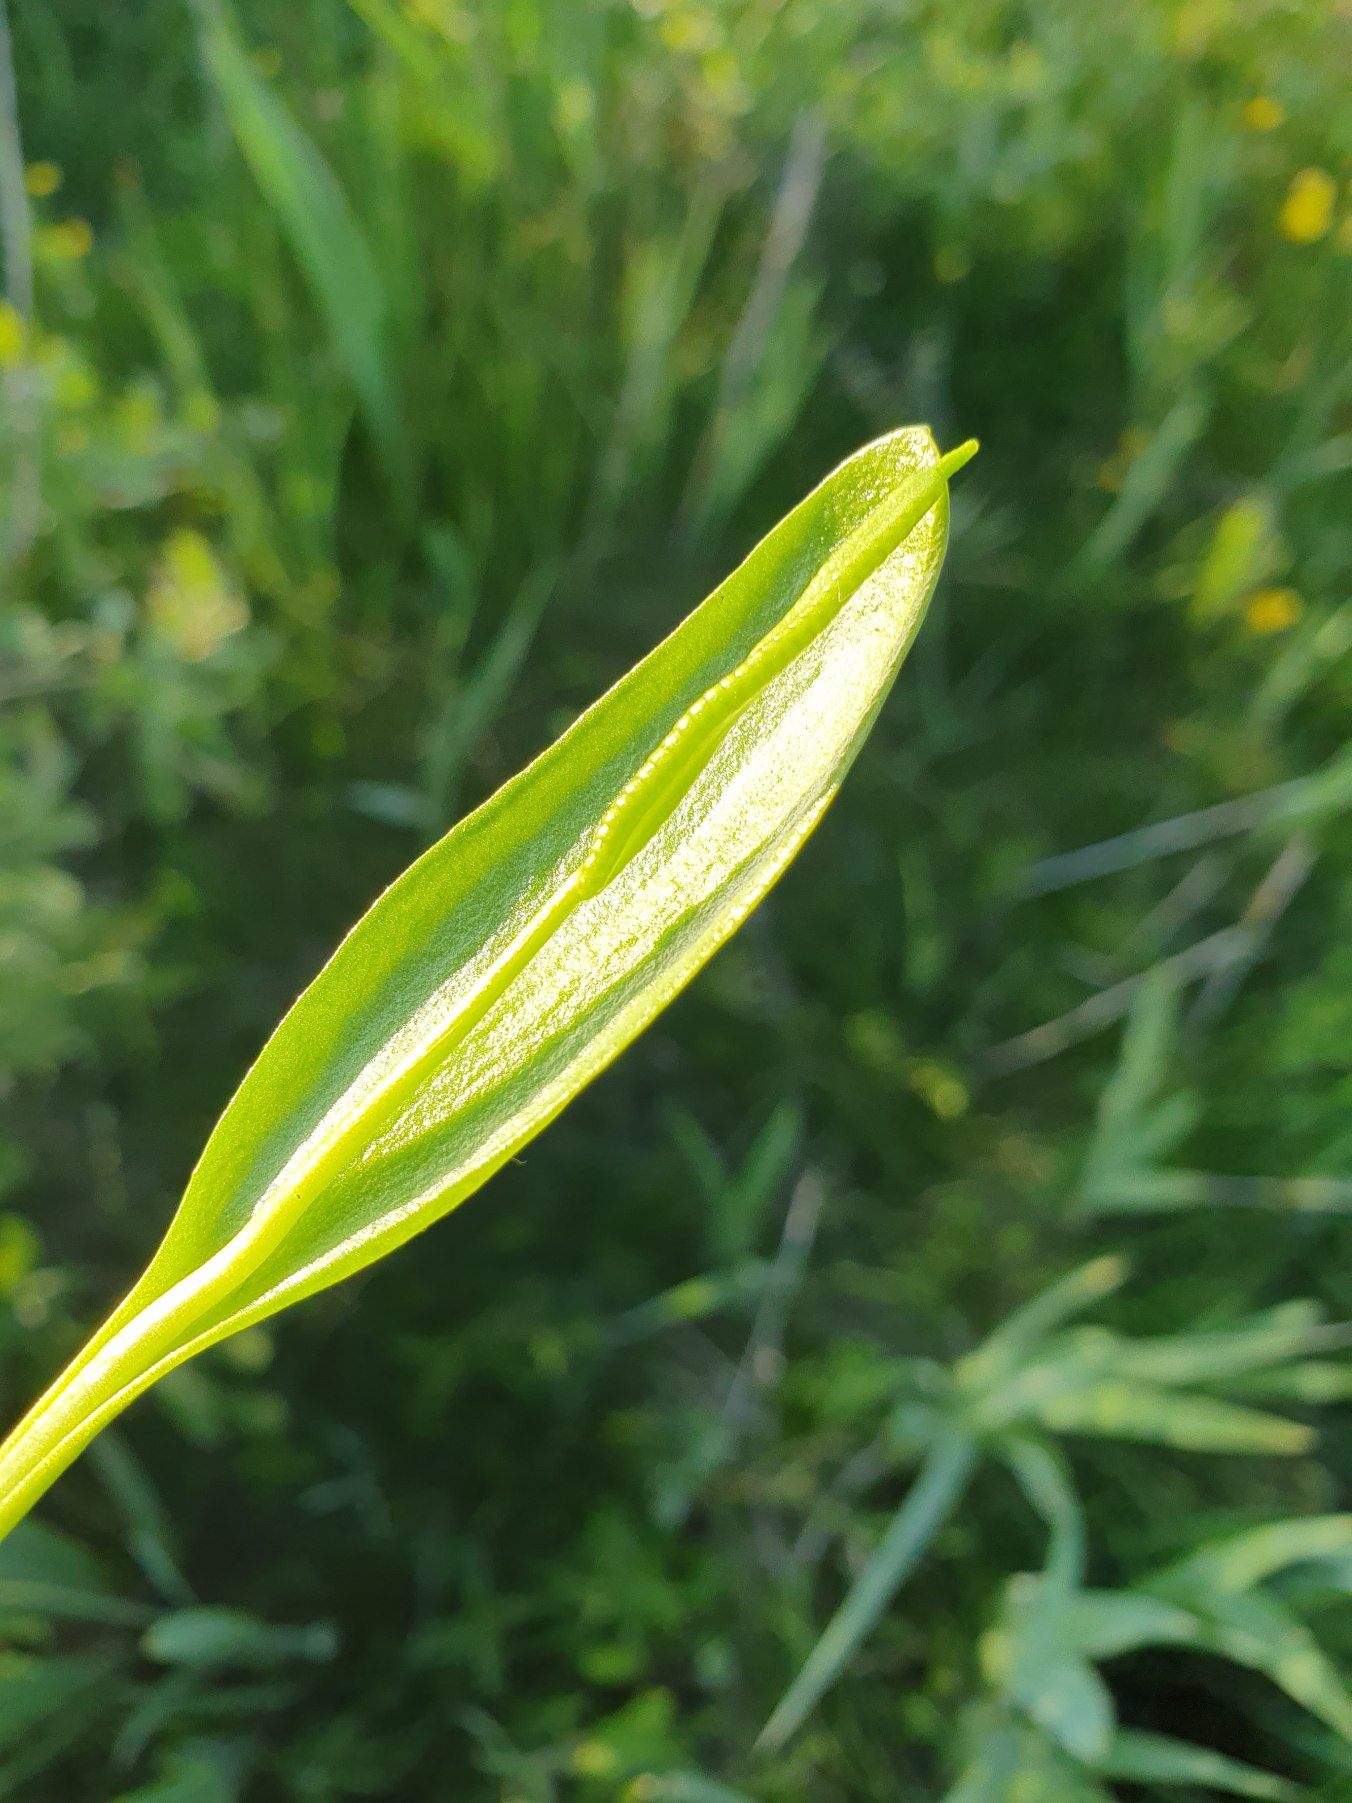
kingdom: Plantae
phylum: Tracheophyta
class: Polypodiopsida
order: Ophioglossales
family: Ophioglossaceae
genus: Ophioglossum
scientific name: Ophioglossum vulgatum
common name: Slangetunge
